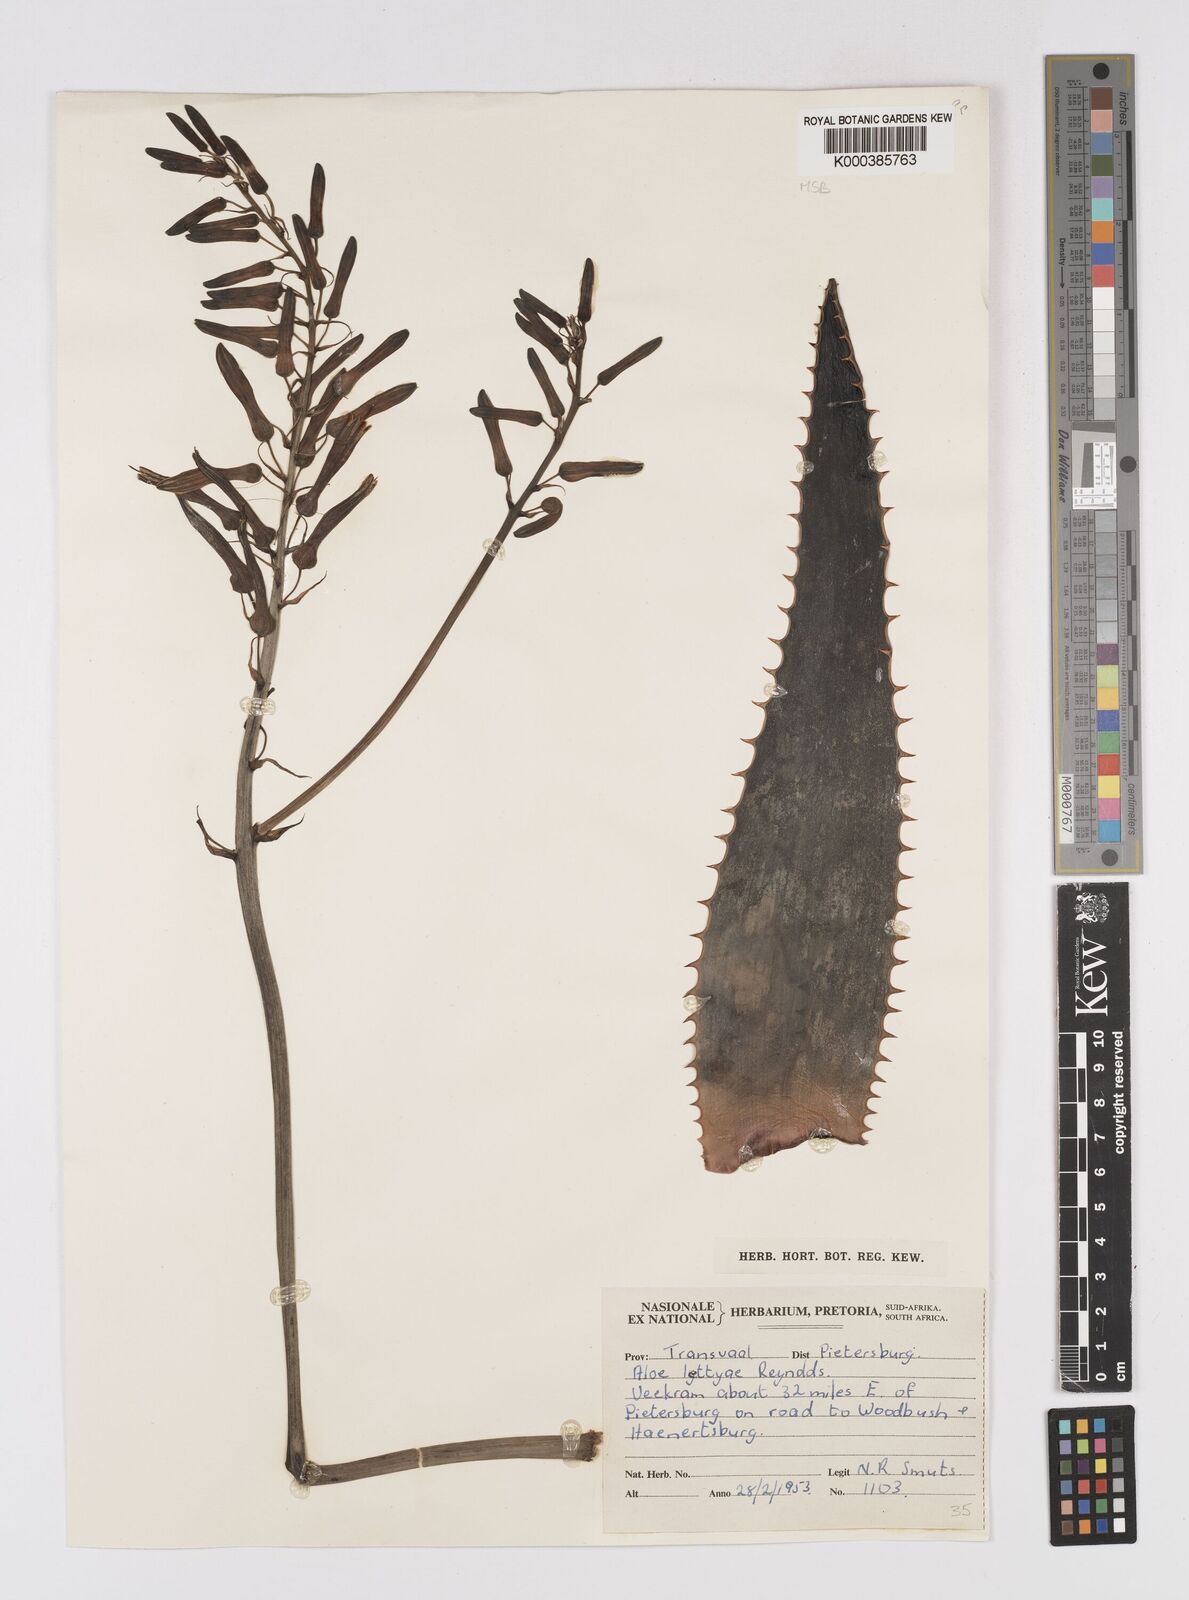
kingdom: Plantae
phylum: Tracheophyta
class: Liliopsida
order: Asparagales
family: Asphodelaceae
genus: Aloe
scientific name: Aloe
